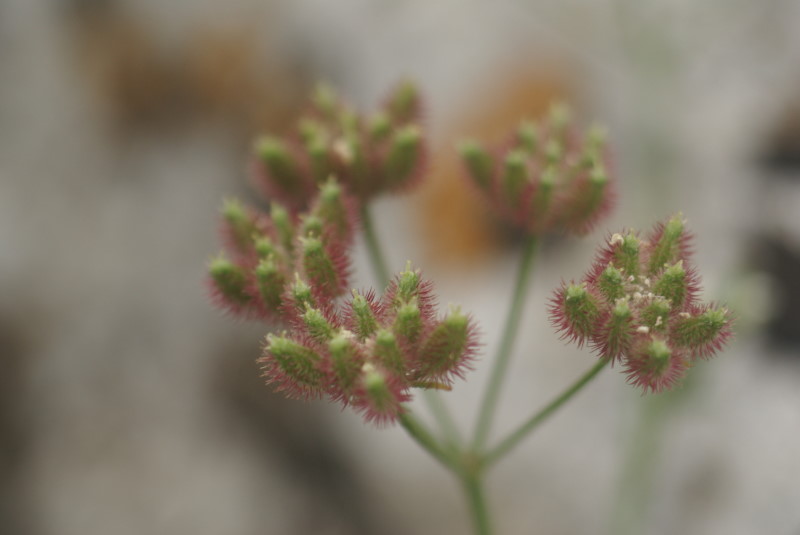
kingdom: Plantae
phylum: Tracheophyta
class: Magnoliopsida
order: Apiales
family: Apiaceae
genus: Torilis
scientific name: Torilis arvensis
